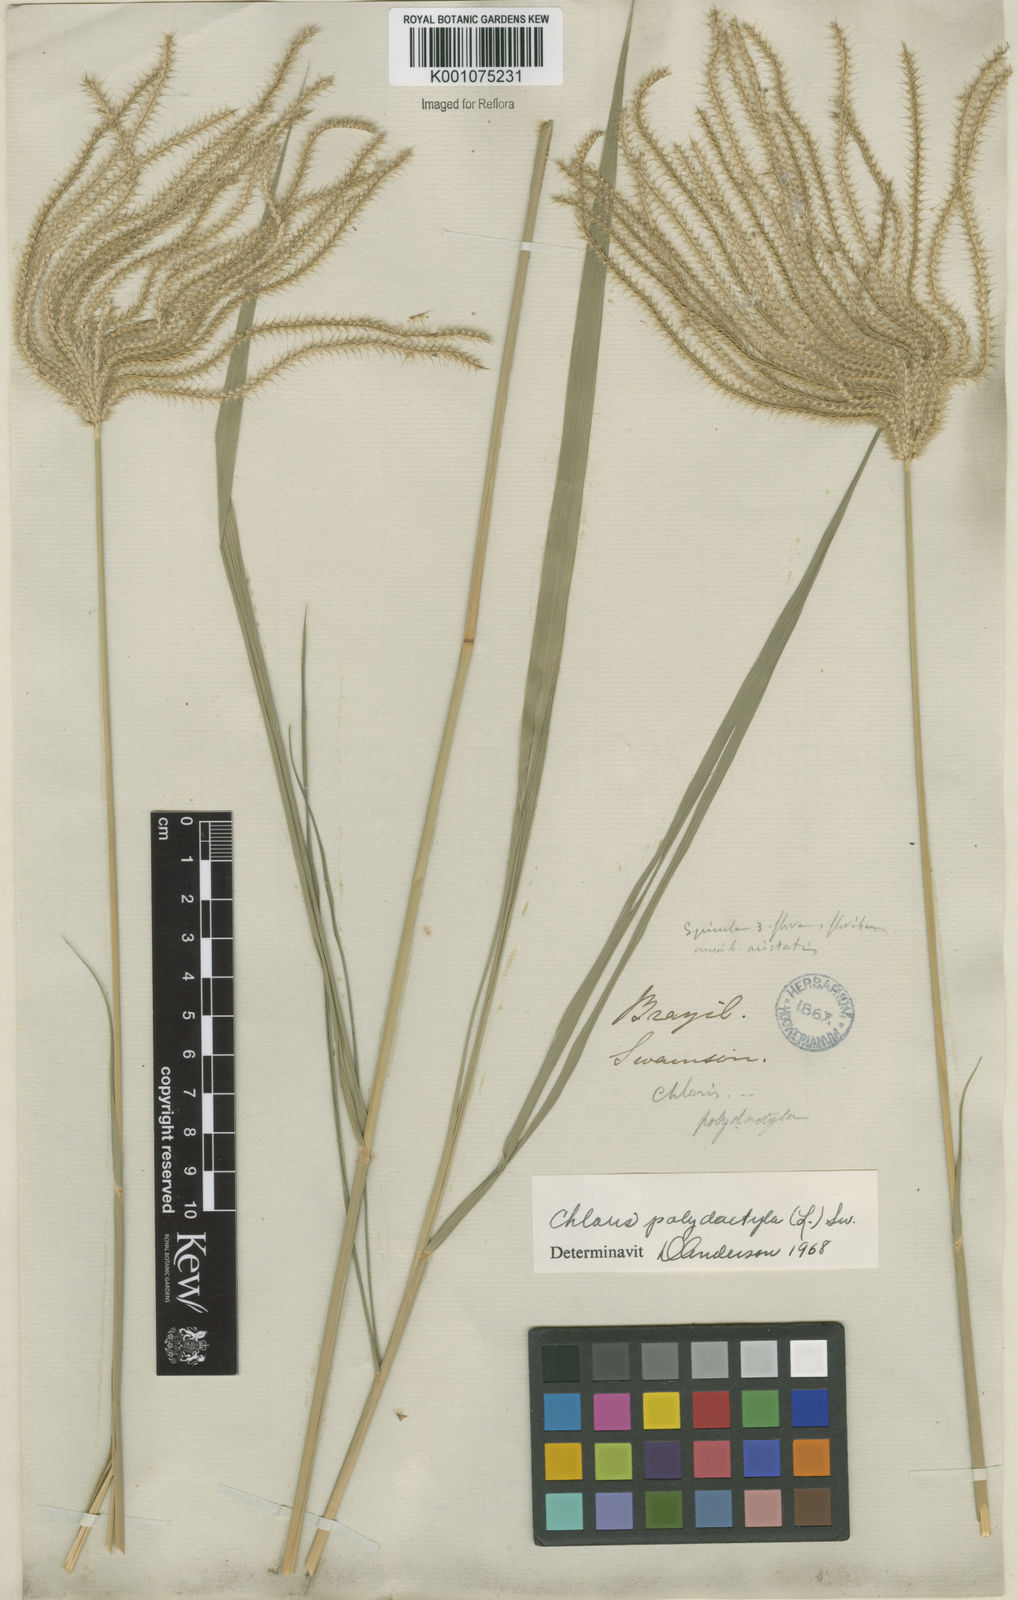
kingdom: Plantae
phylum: Tracheophyta
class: Liliopsida
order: Poales
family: Poaceae
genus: Stapfochloa
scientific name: Stapfochloa elata
